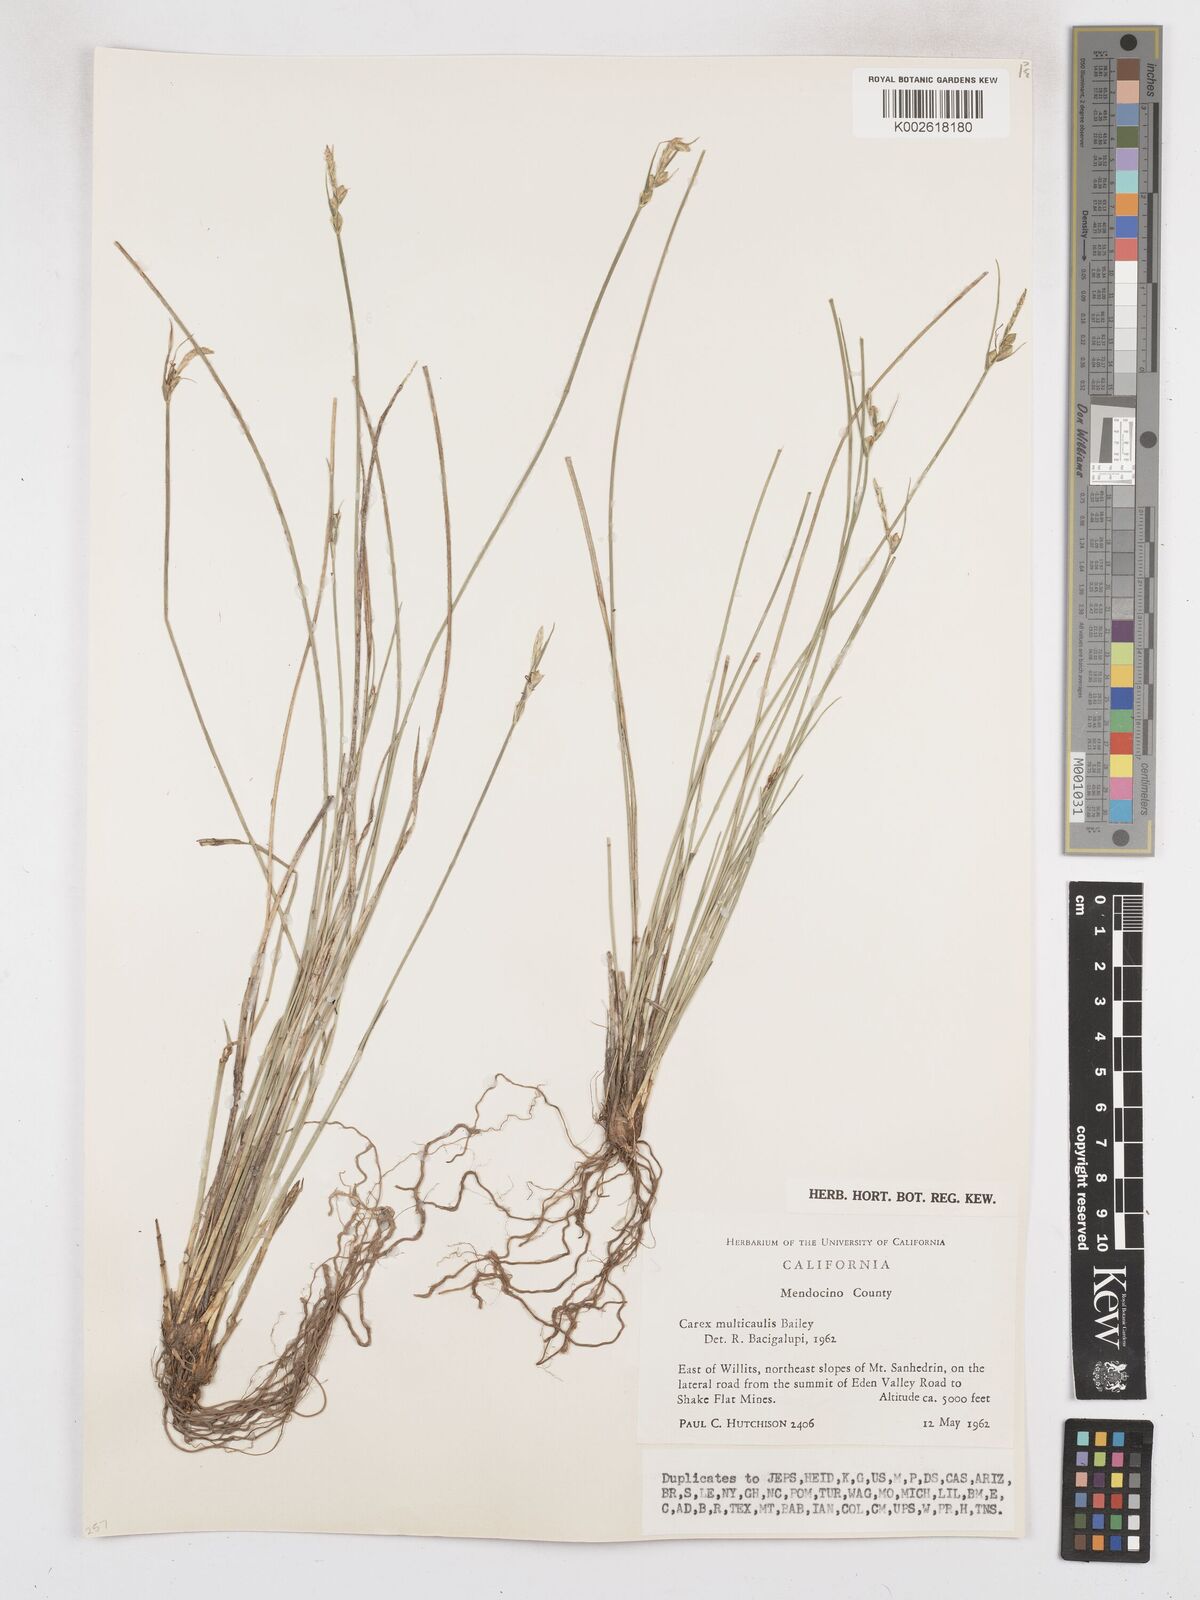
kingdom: Plantae
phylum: Tracheophyta
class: Liliopsida
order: Poales
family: Cyperaceae
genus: Carex
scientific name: Carex multicaulis
